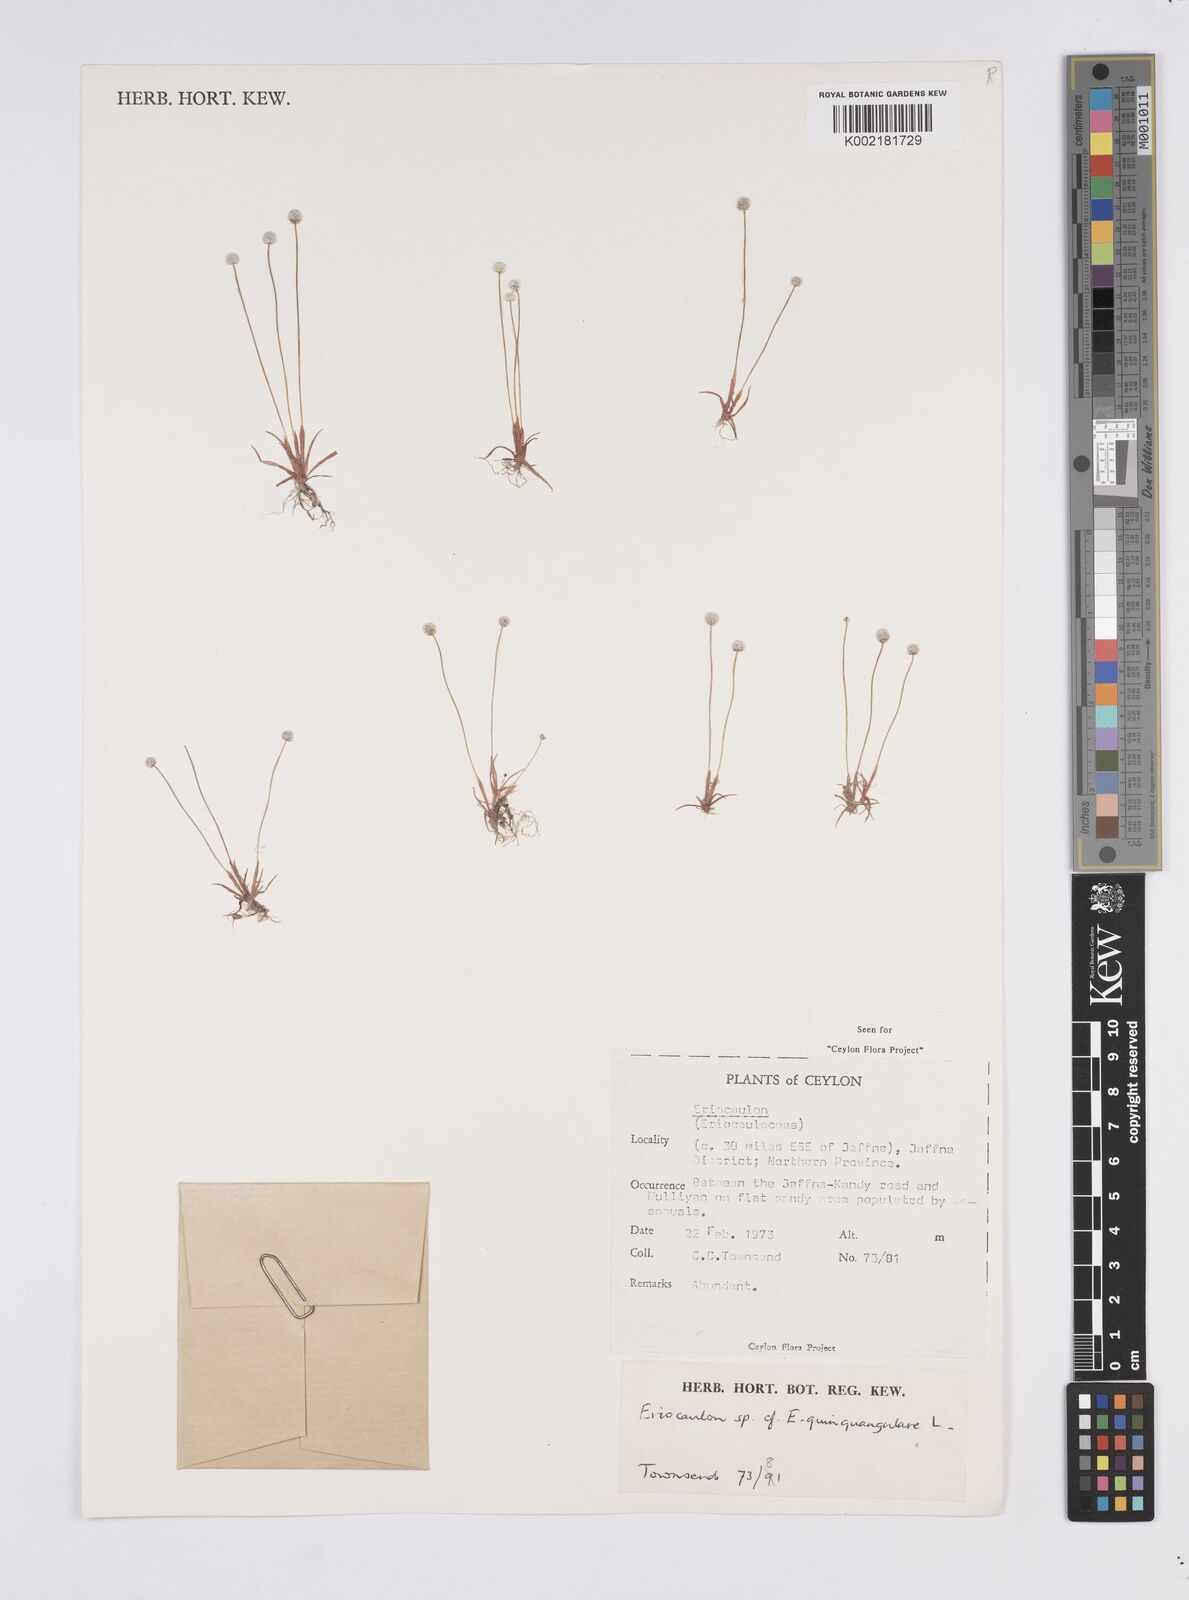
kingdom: Plantae
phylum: Tracheophyta
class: Liliopsida
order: Poales
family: Eriocaulaceae
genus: Eriocaulon
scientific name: Eriocaulon quinquangulare
